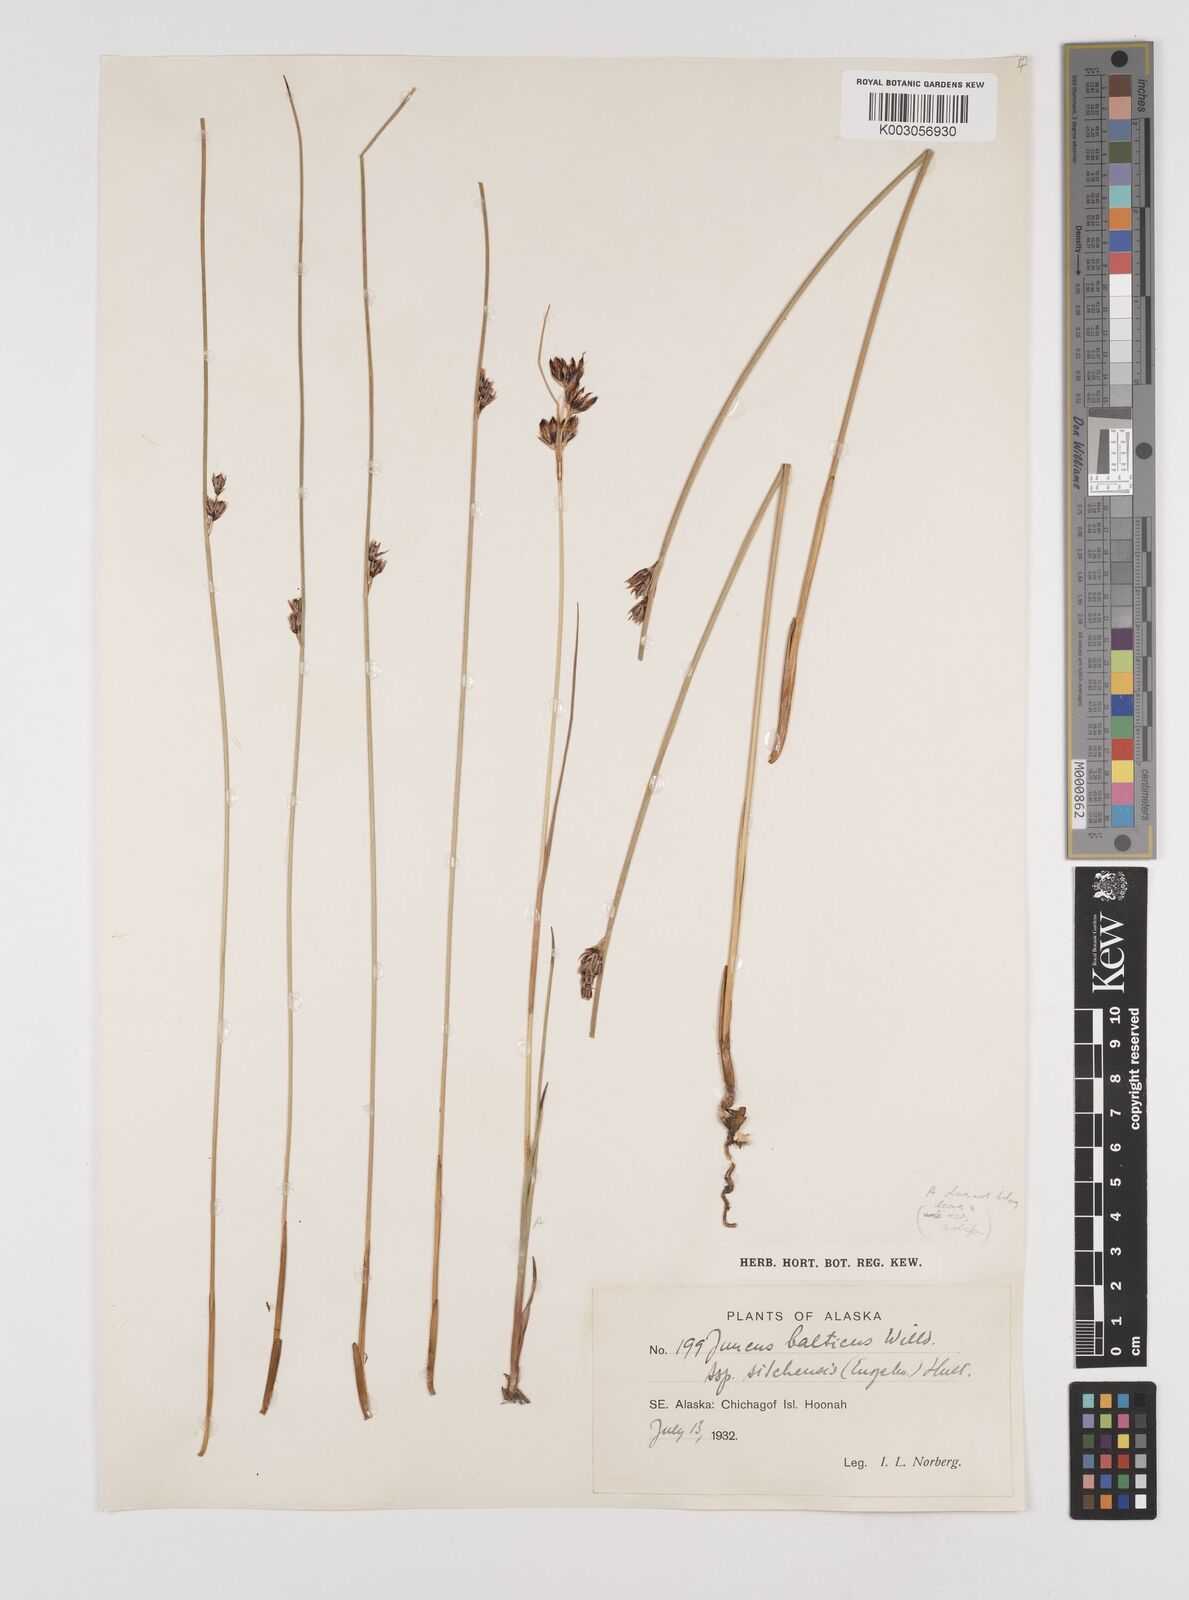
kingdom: Plantae
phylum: Tracheophyta
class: Liliopsida
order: Poales
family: Juncaceae
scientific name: Juncaceae
